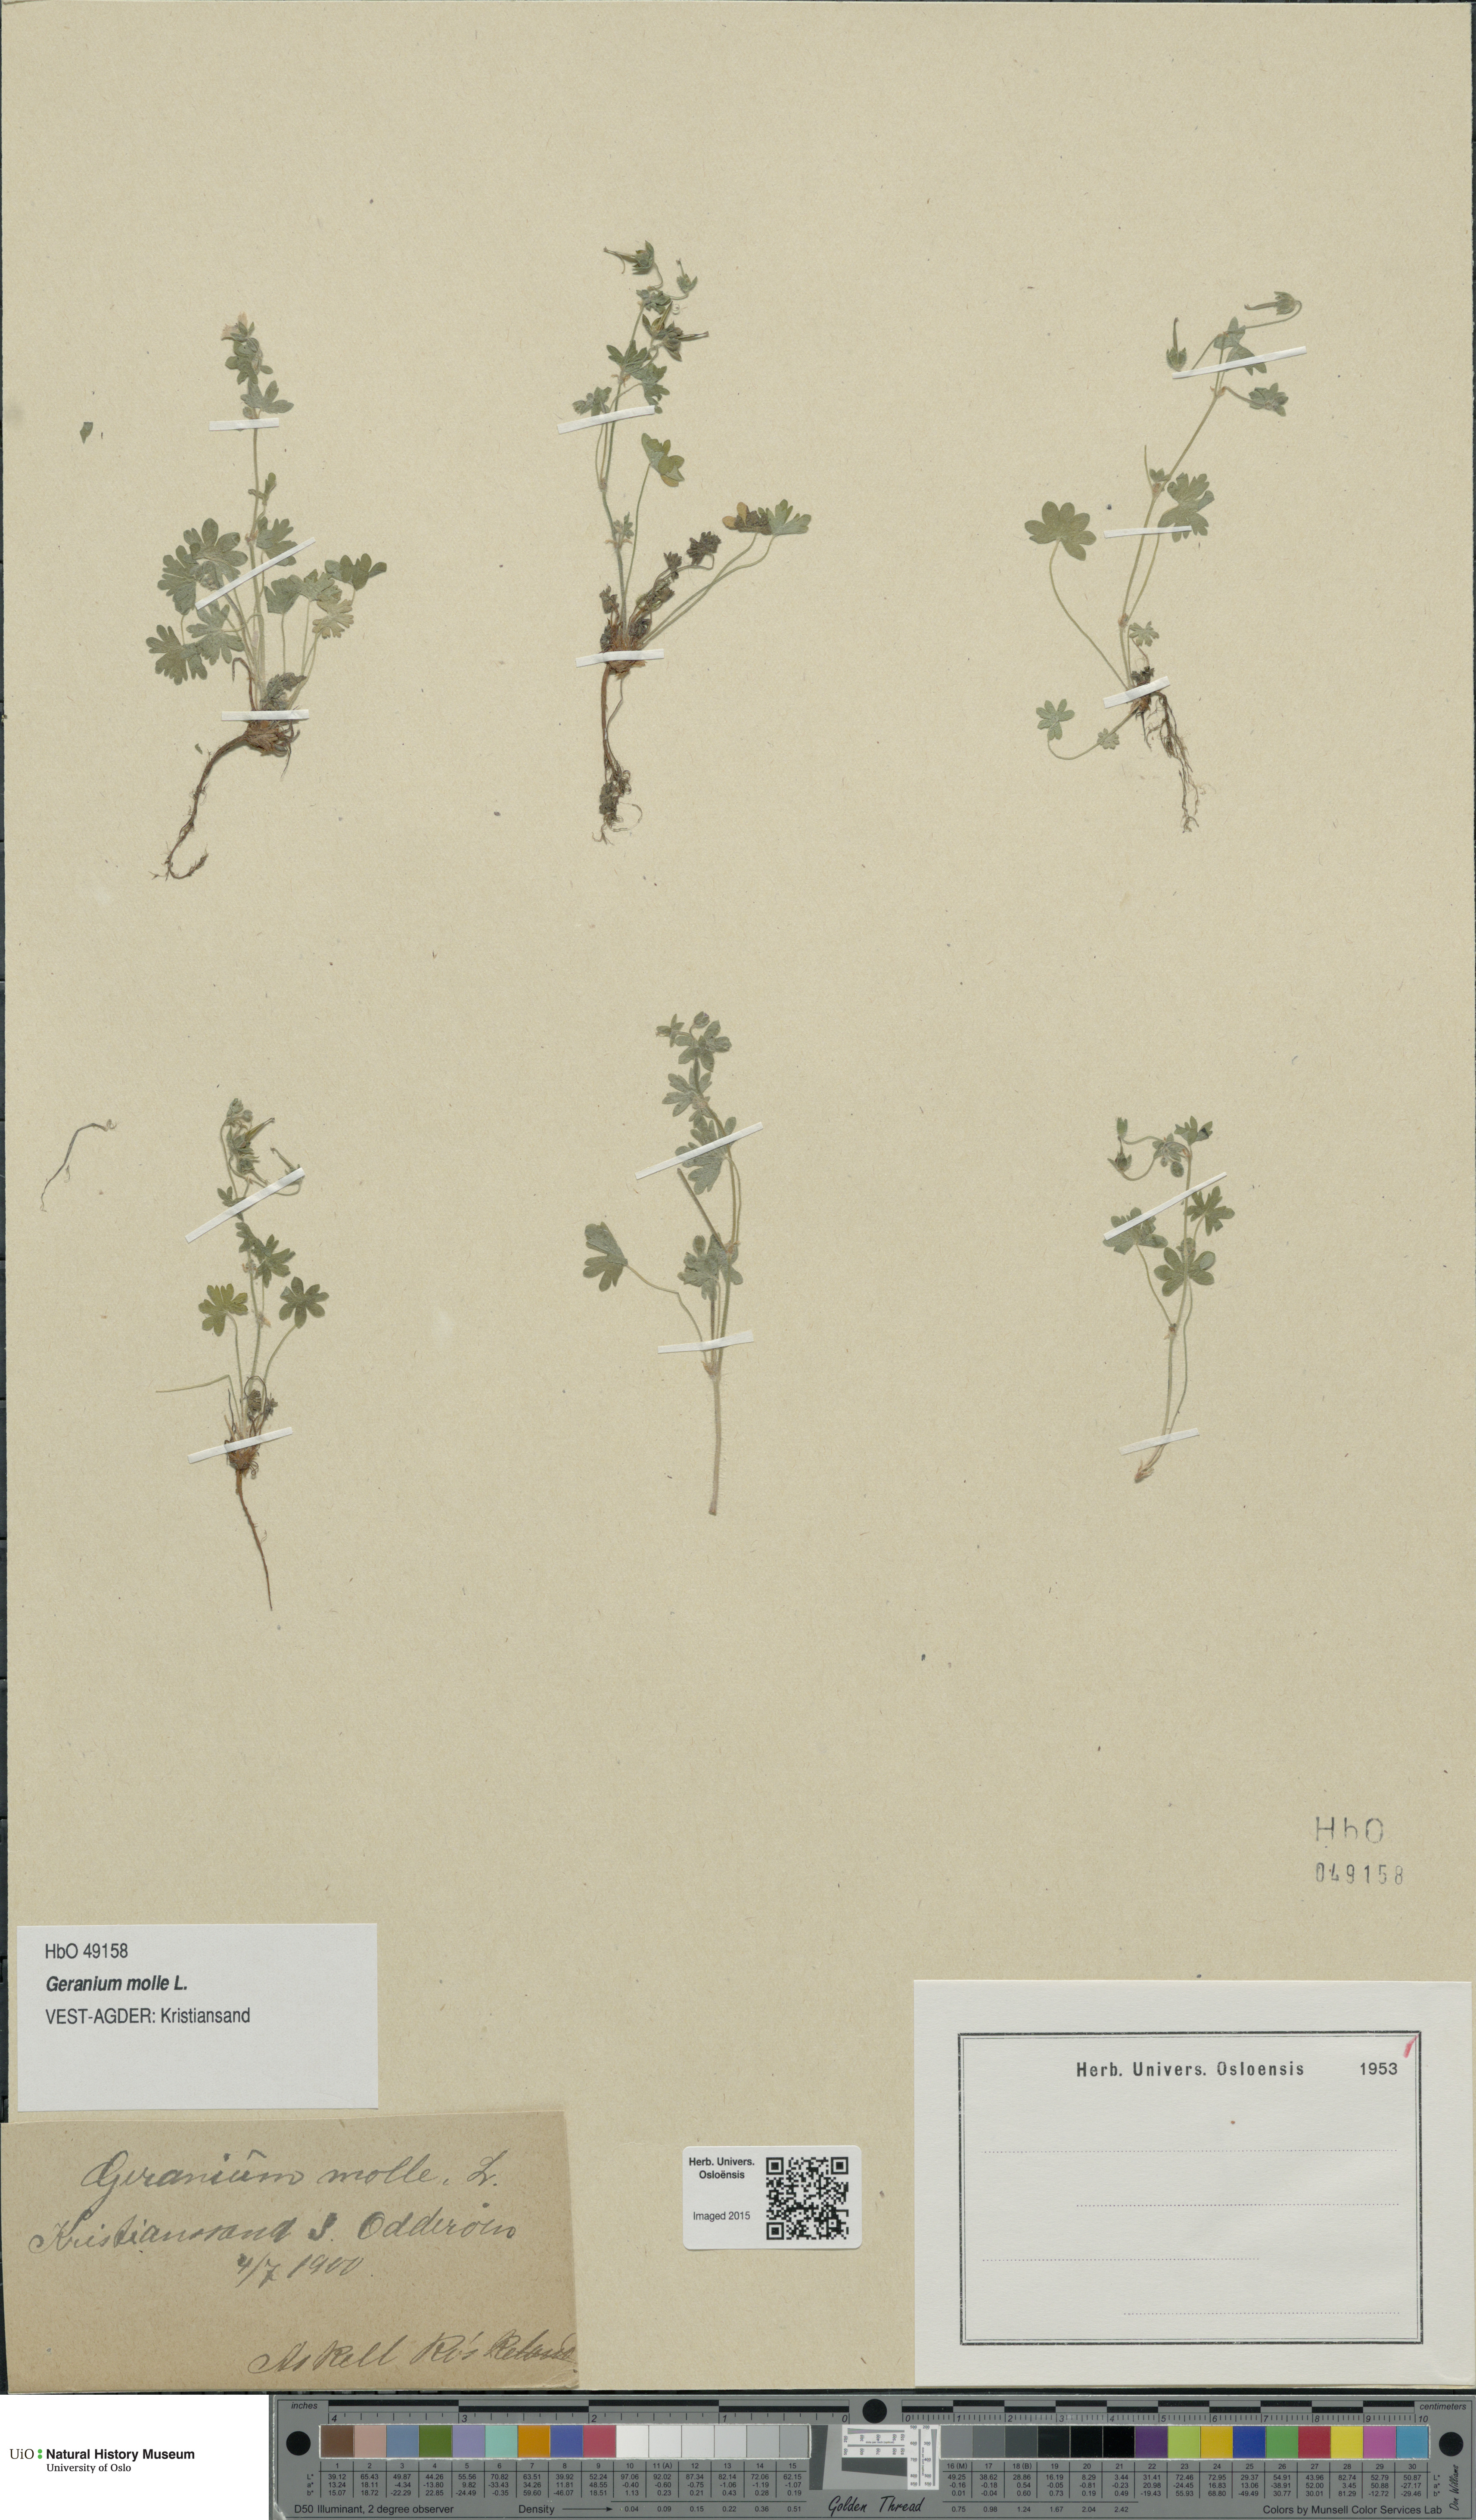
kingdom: Plantae
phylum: Tracheophyta
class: Magnoliopsida
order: Geraniales
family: Geraniaceae
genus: Geranium
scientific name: Geranium molle
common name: Dove's-foot crane's-bill
